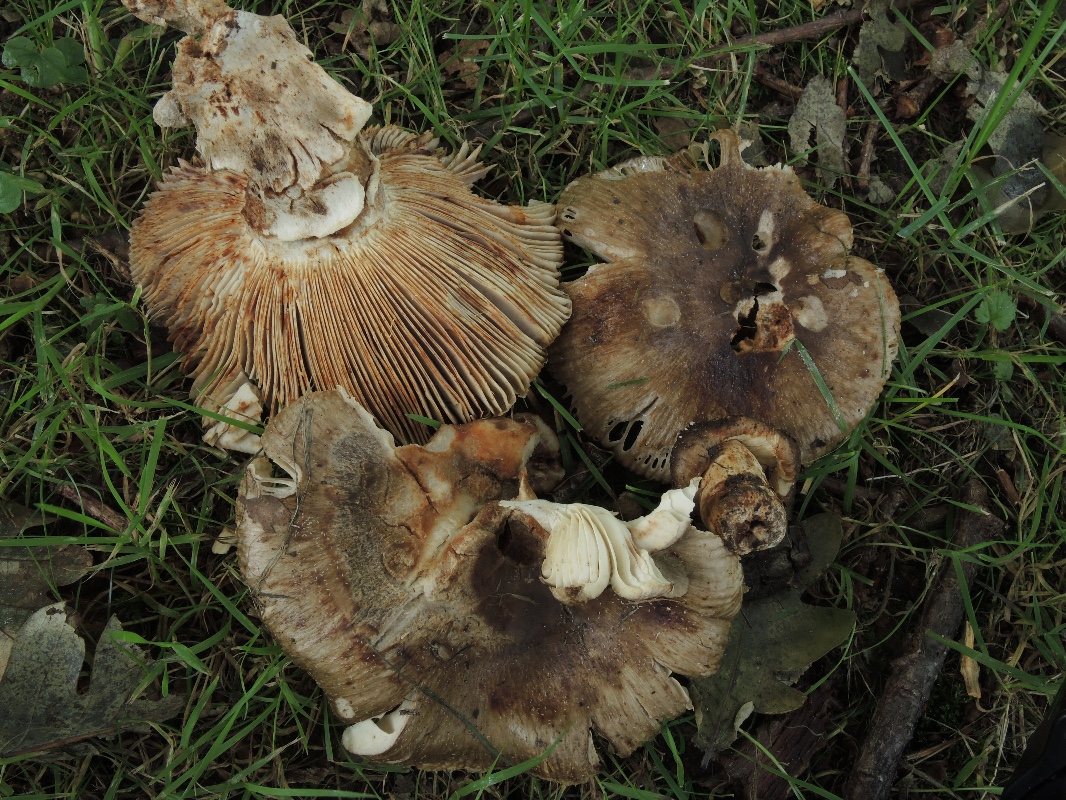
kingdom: Fungi
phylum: Basidiomycota
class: Agaricomycetes
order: Russulales
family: Russulaceae
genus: Russula
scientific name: Russula sororia
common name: brun kam-skørhat
